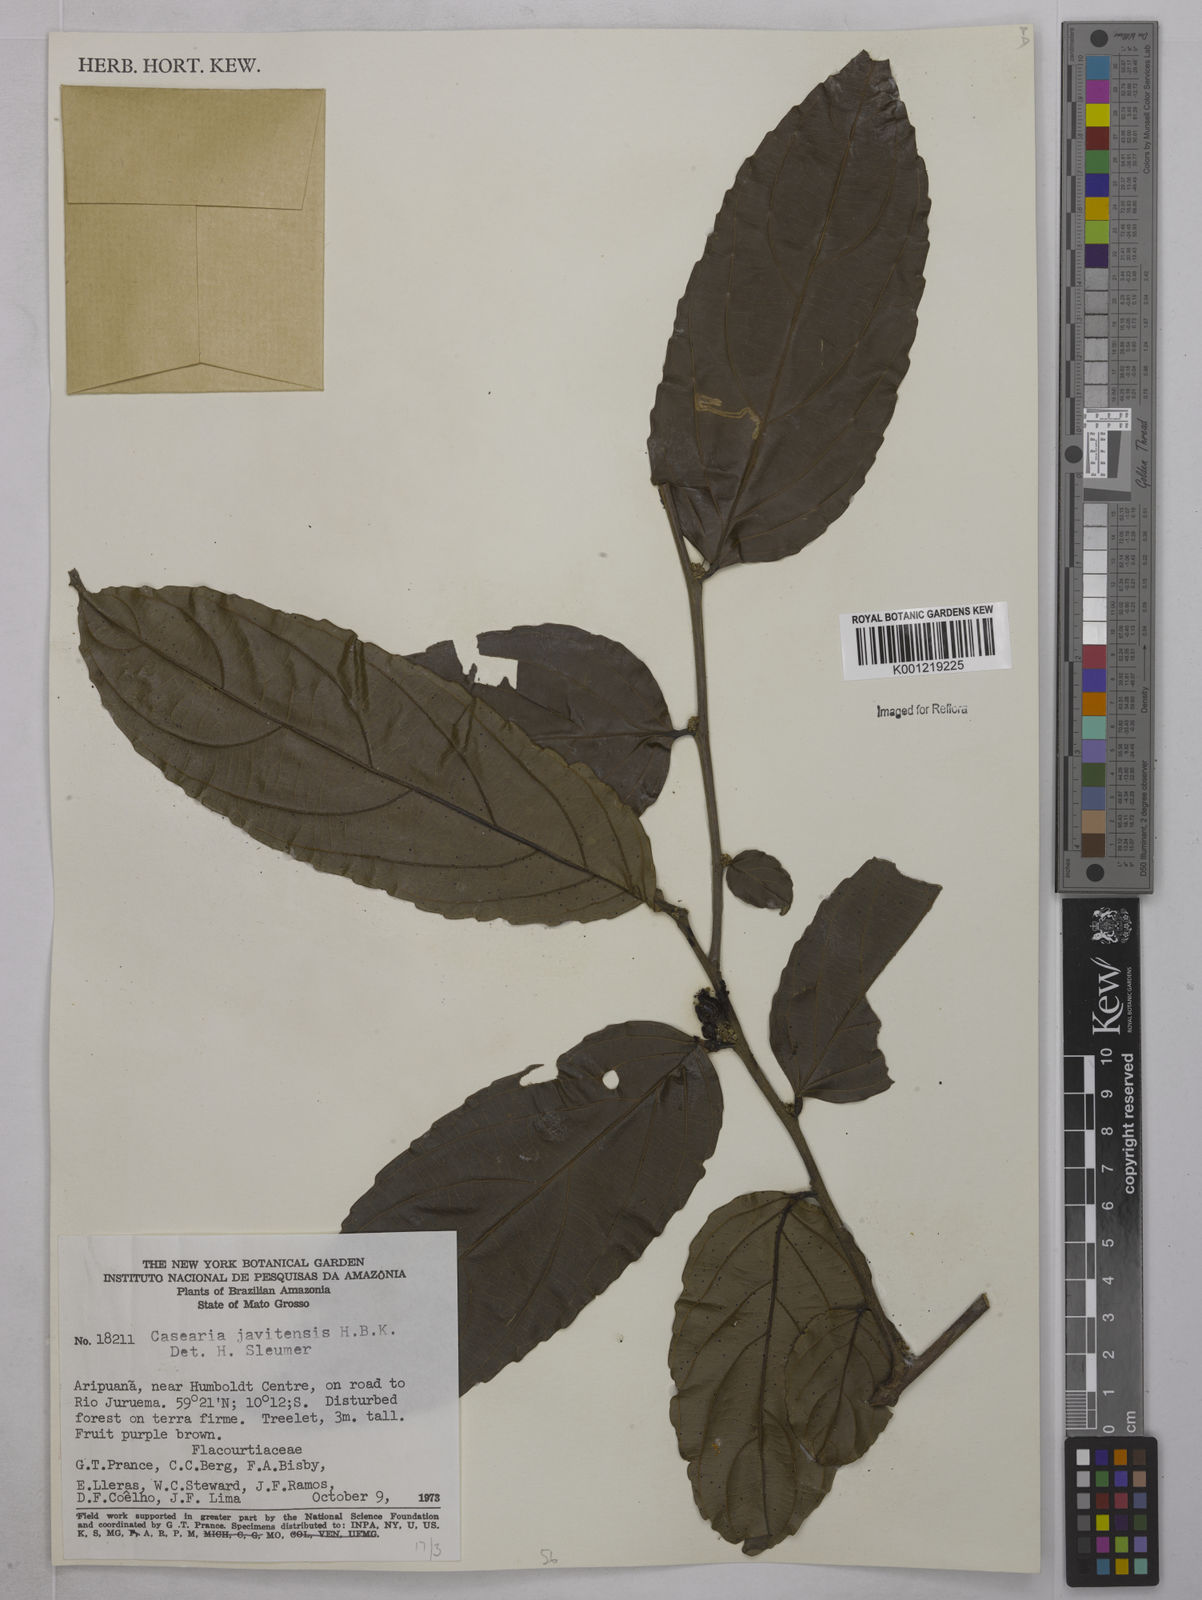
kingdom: Plantae
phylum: Tracheophyta
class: Magnoliopsida
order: Malpighiales
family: Salicaceae
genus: Piparea
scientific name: Piparea multiflora
